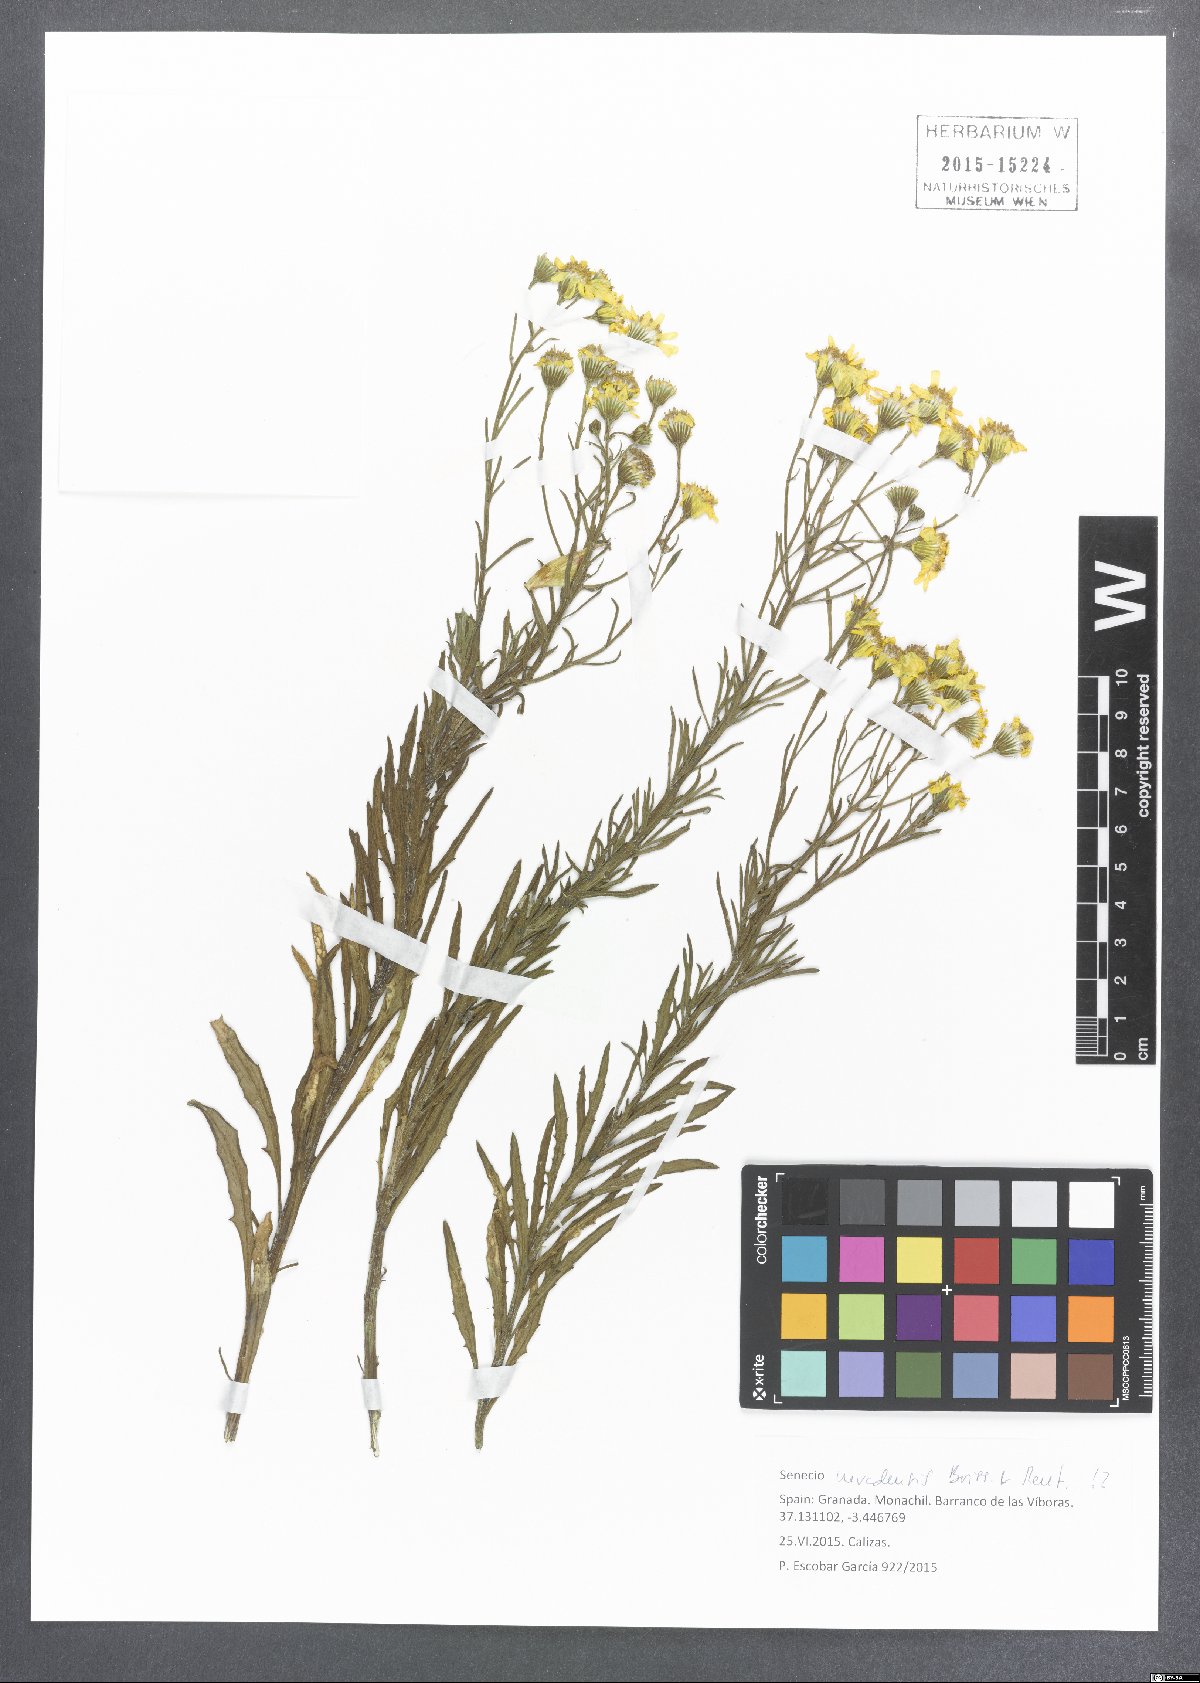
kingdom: Plantae
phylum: Tracheophyta
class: Magnoliopsida
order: Asterales
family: Asteraceae
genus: Senecio
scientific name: Senecio nevadensis
